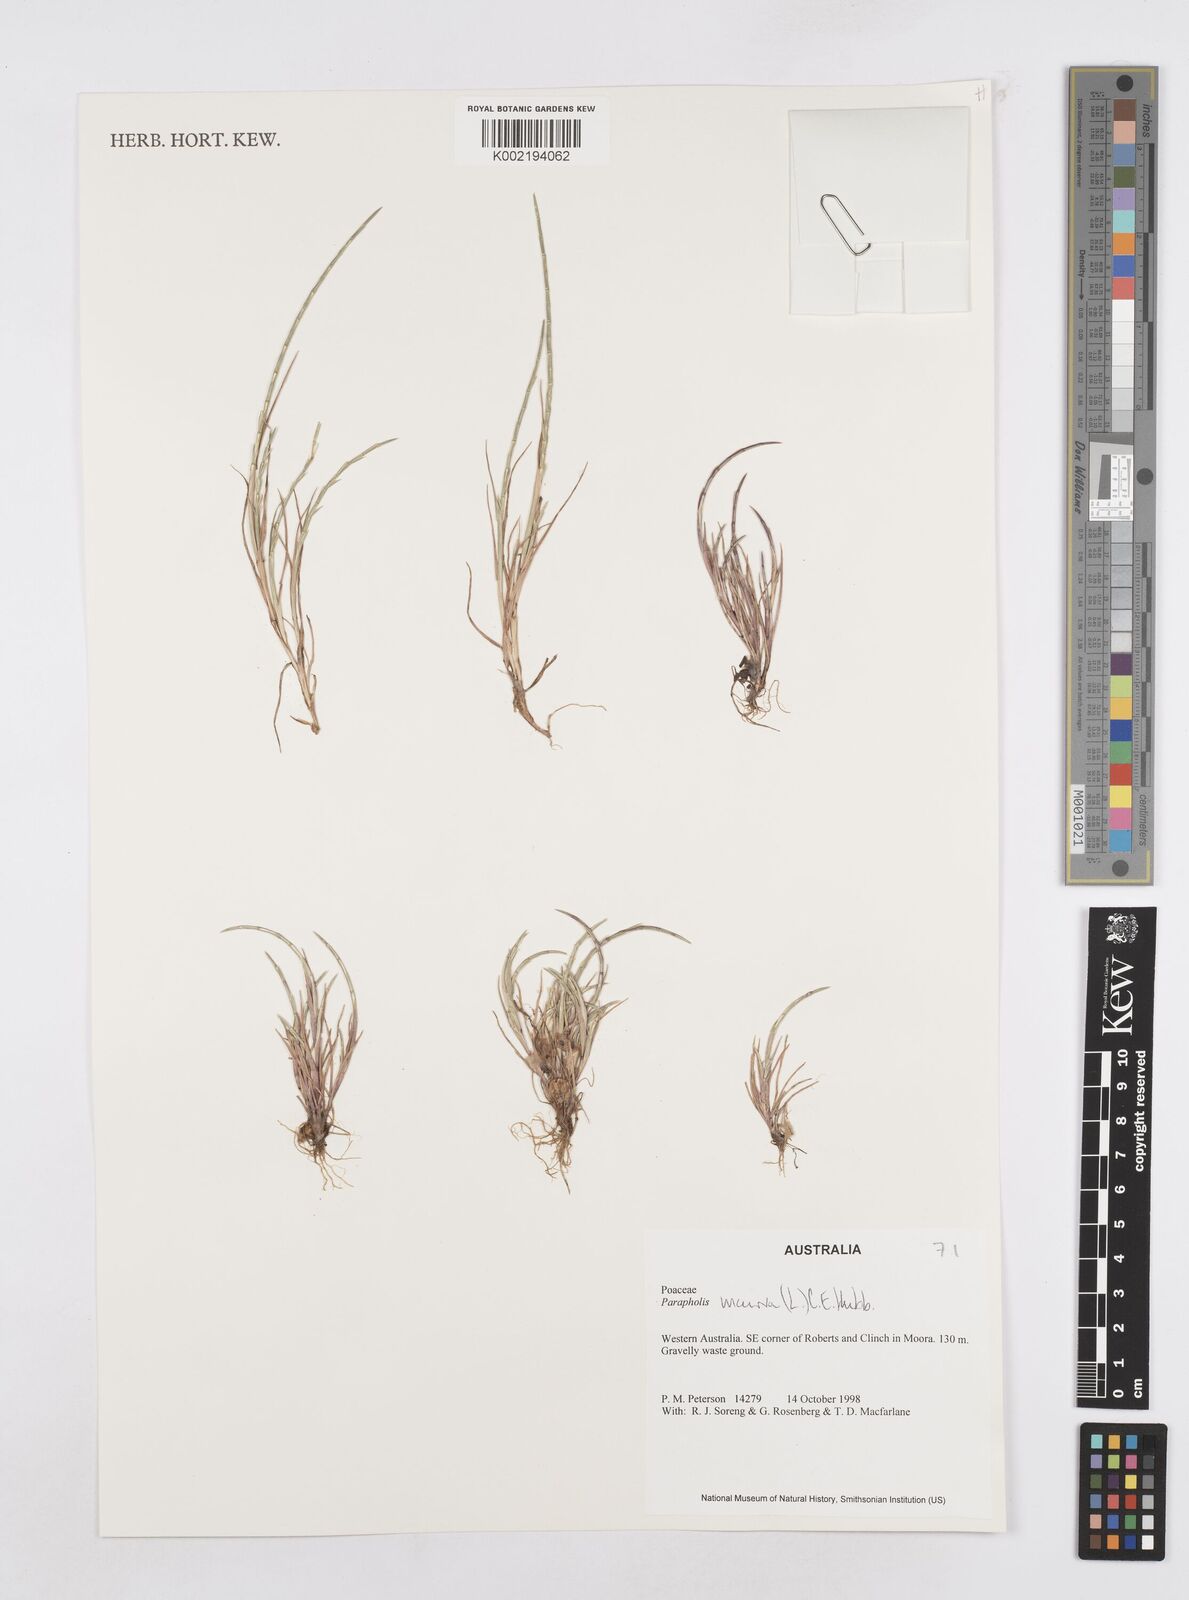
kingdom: Plantae
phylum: Tracheophyta
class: Liliopsida
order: Poales
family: Poaceae
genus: Parapholis
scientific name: Parapholis incurva
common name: Curved sicklegrass
